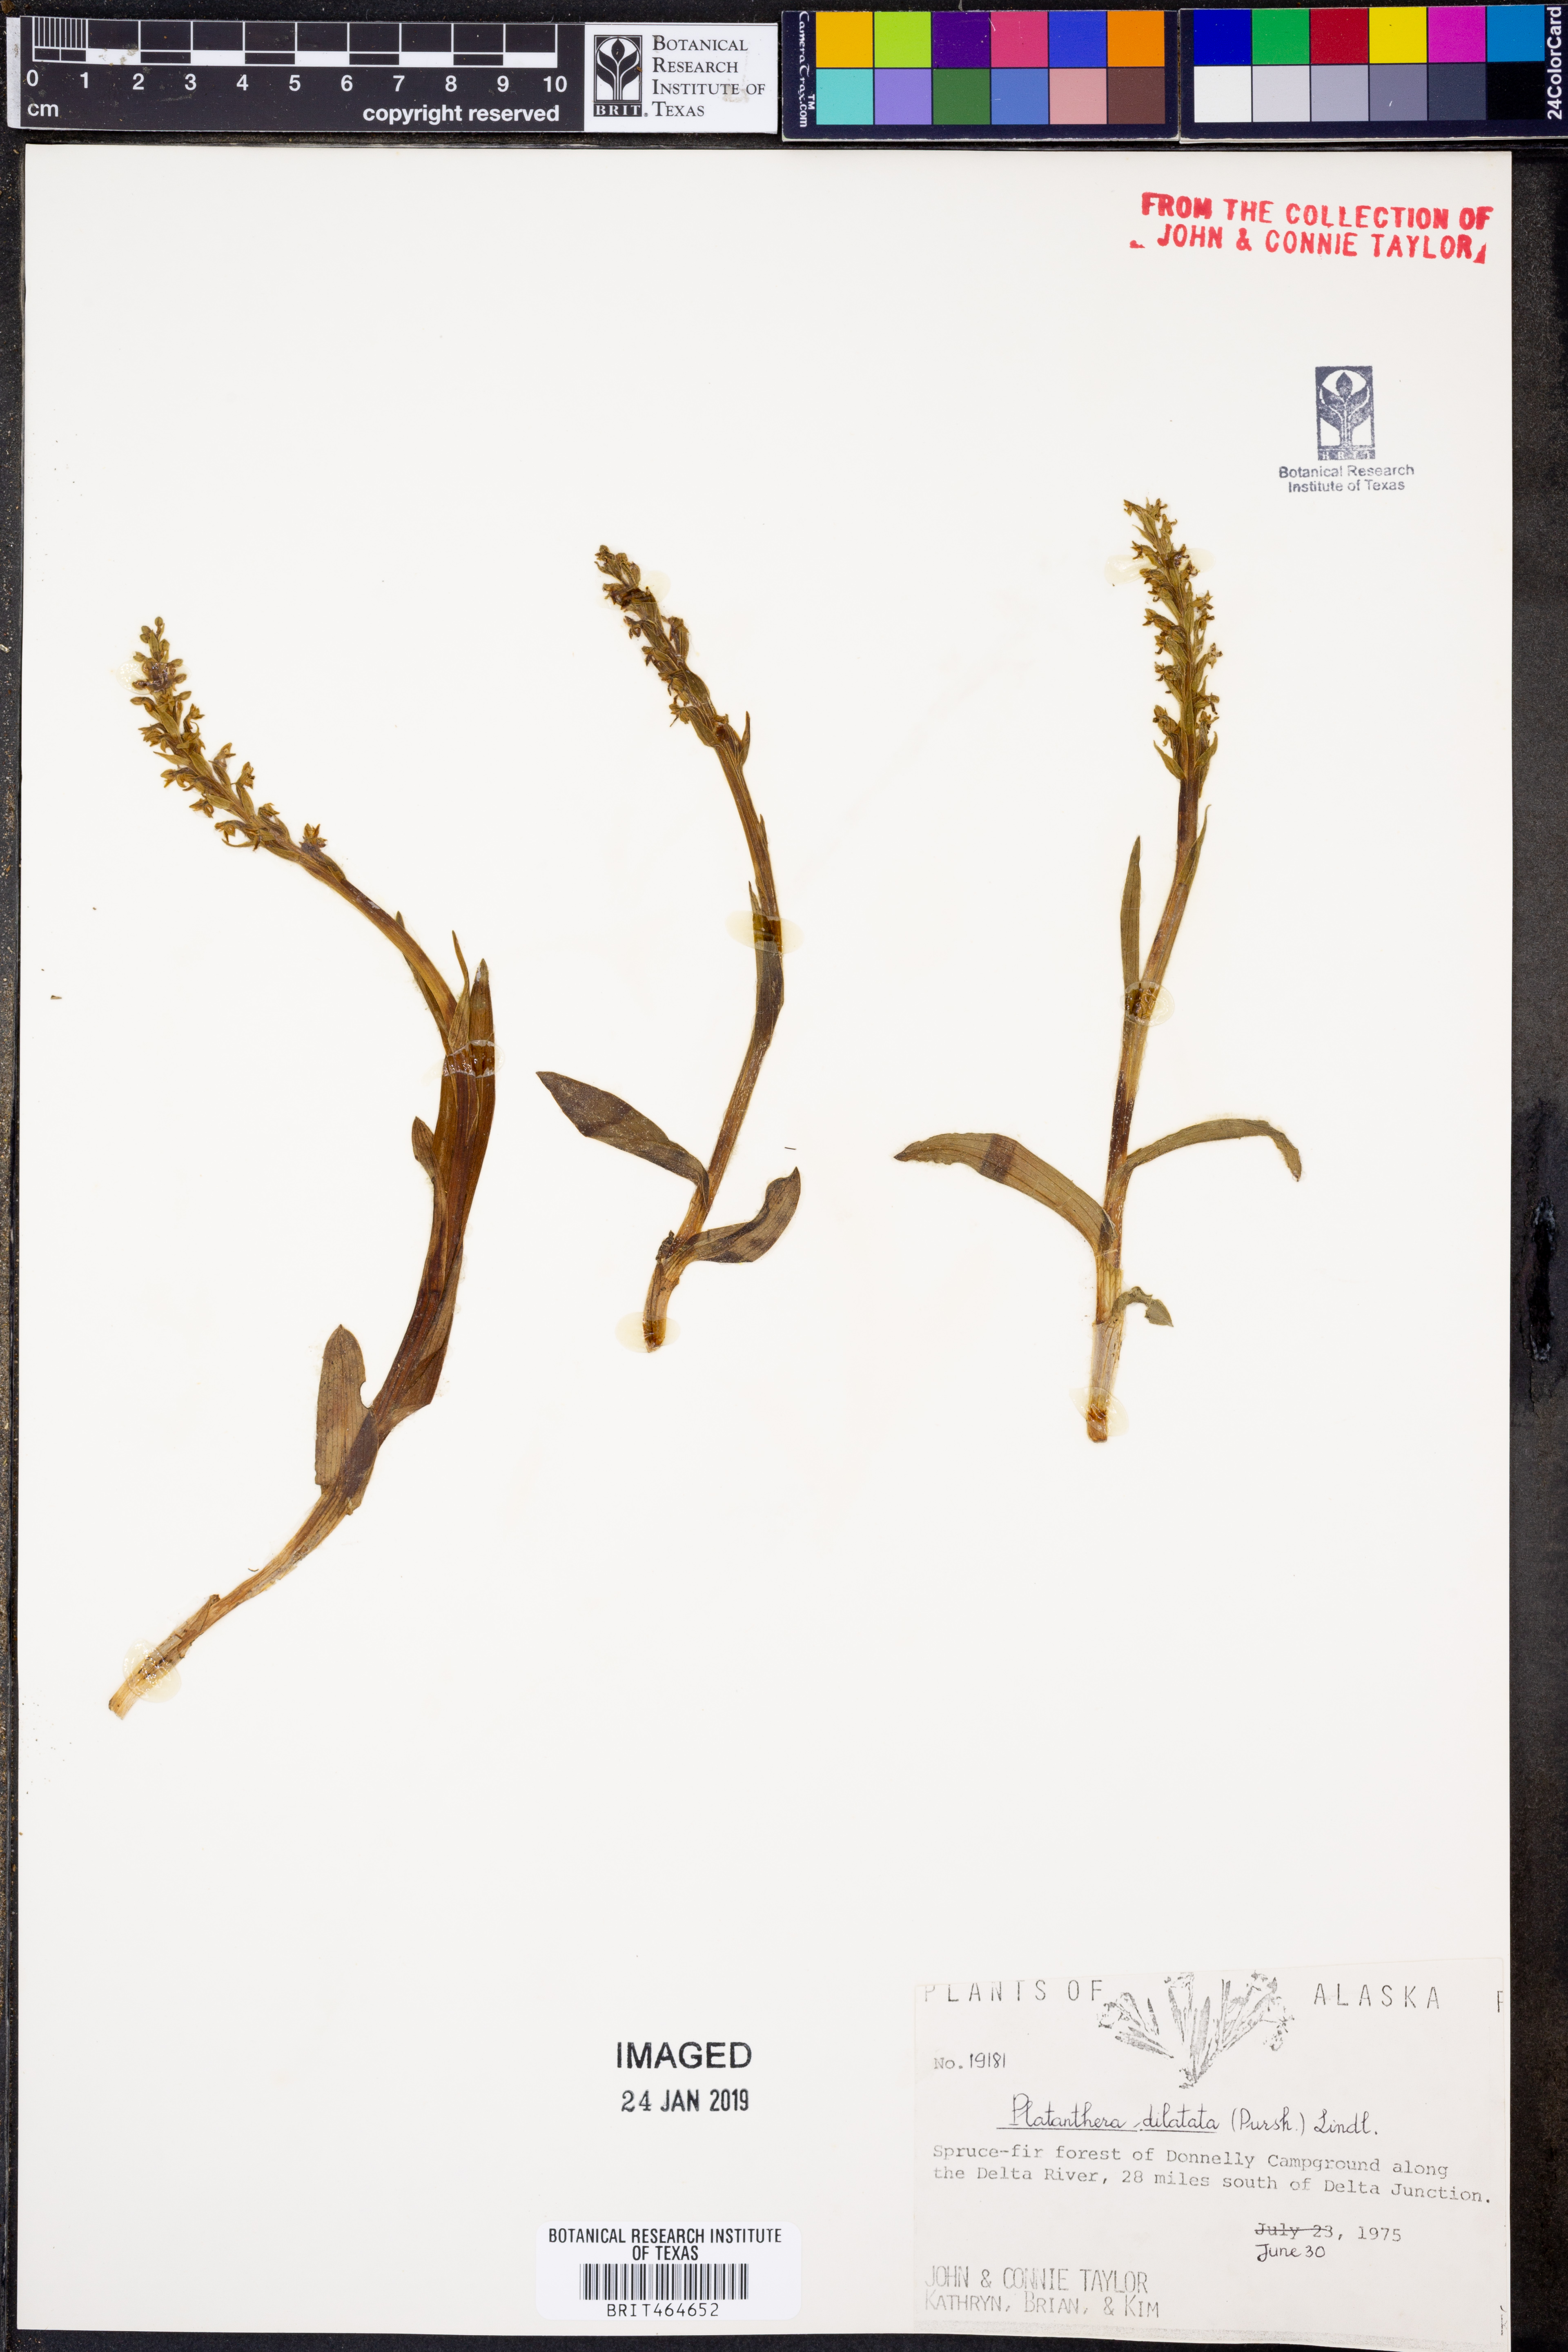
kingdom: Plantae
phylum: Tracheophyta
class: Liliopsida
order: Asparagales
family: Orchidaceae
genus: Platanthera
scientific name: Platanthera dilatata
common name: Bog candles
